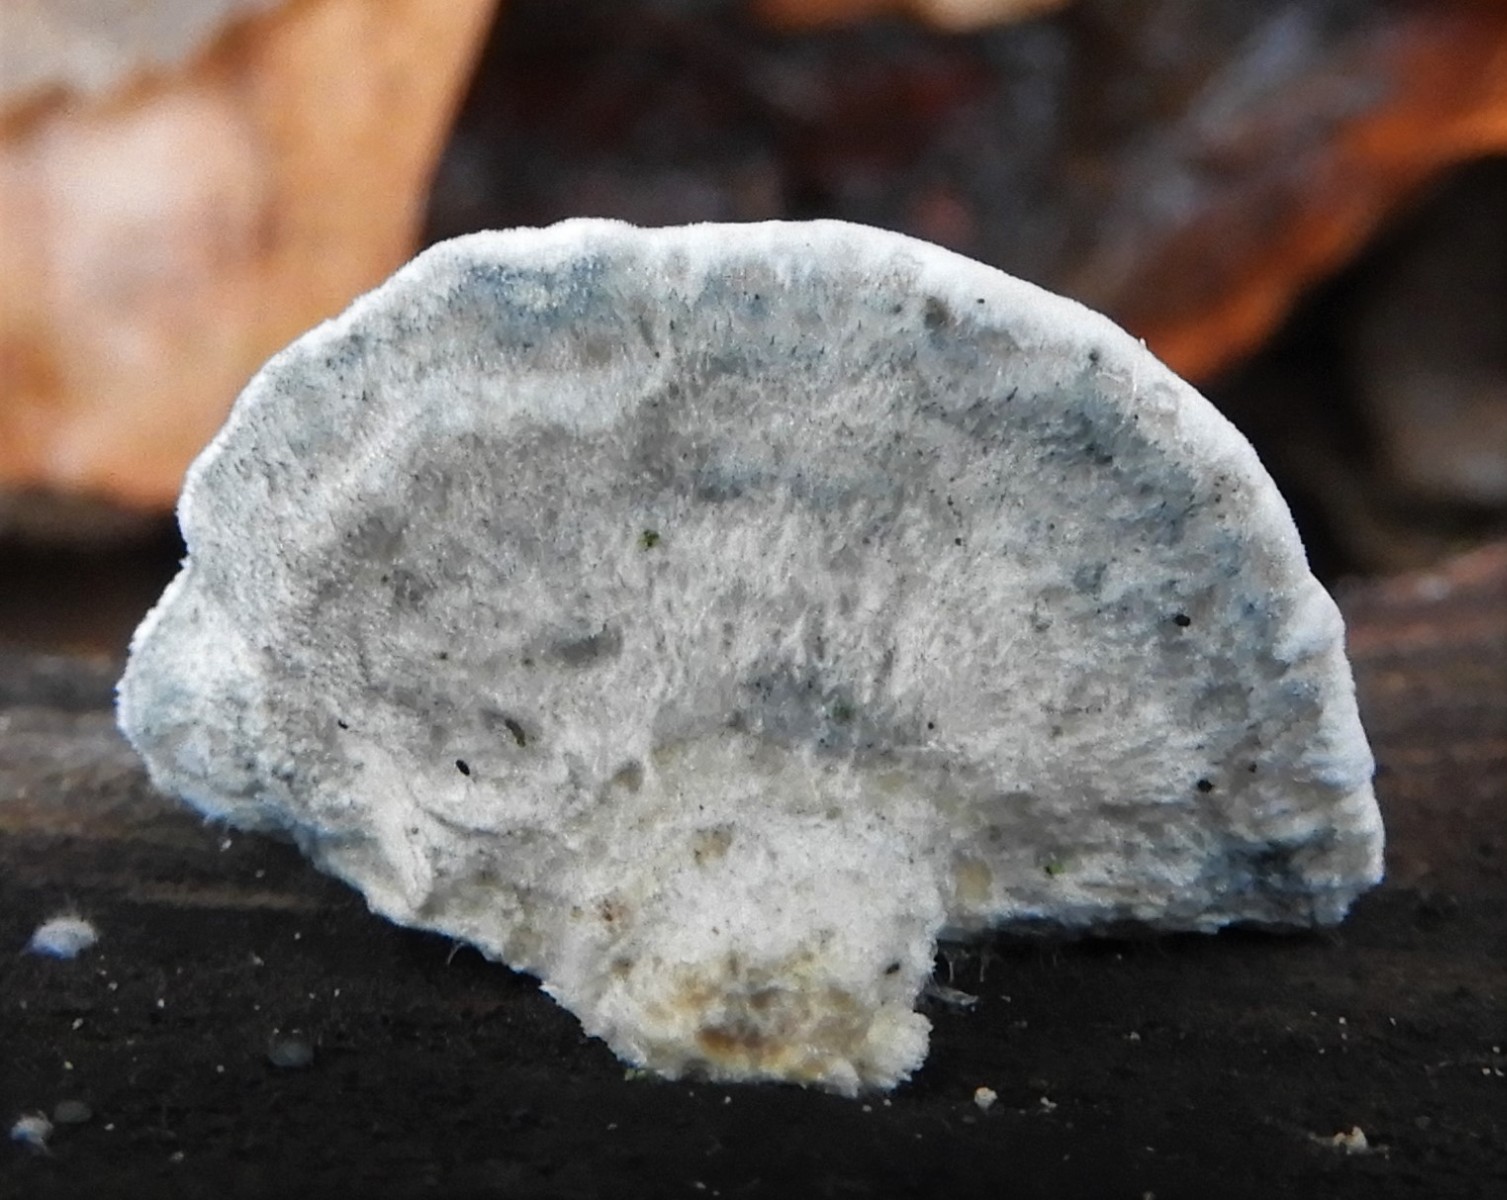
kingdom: Fungi
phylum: Basidiomycota
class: Agaricomycetes
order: Polyporales
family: Polyporaceae
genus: Cyanosporus
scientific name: Cyanosporus caesius
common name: blålig kødporesvamp
